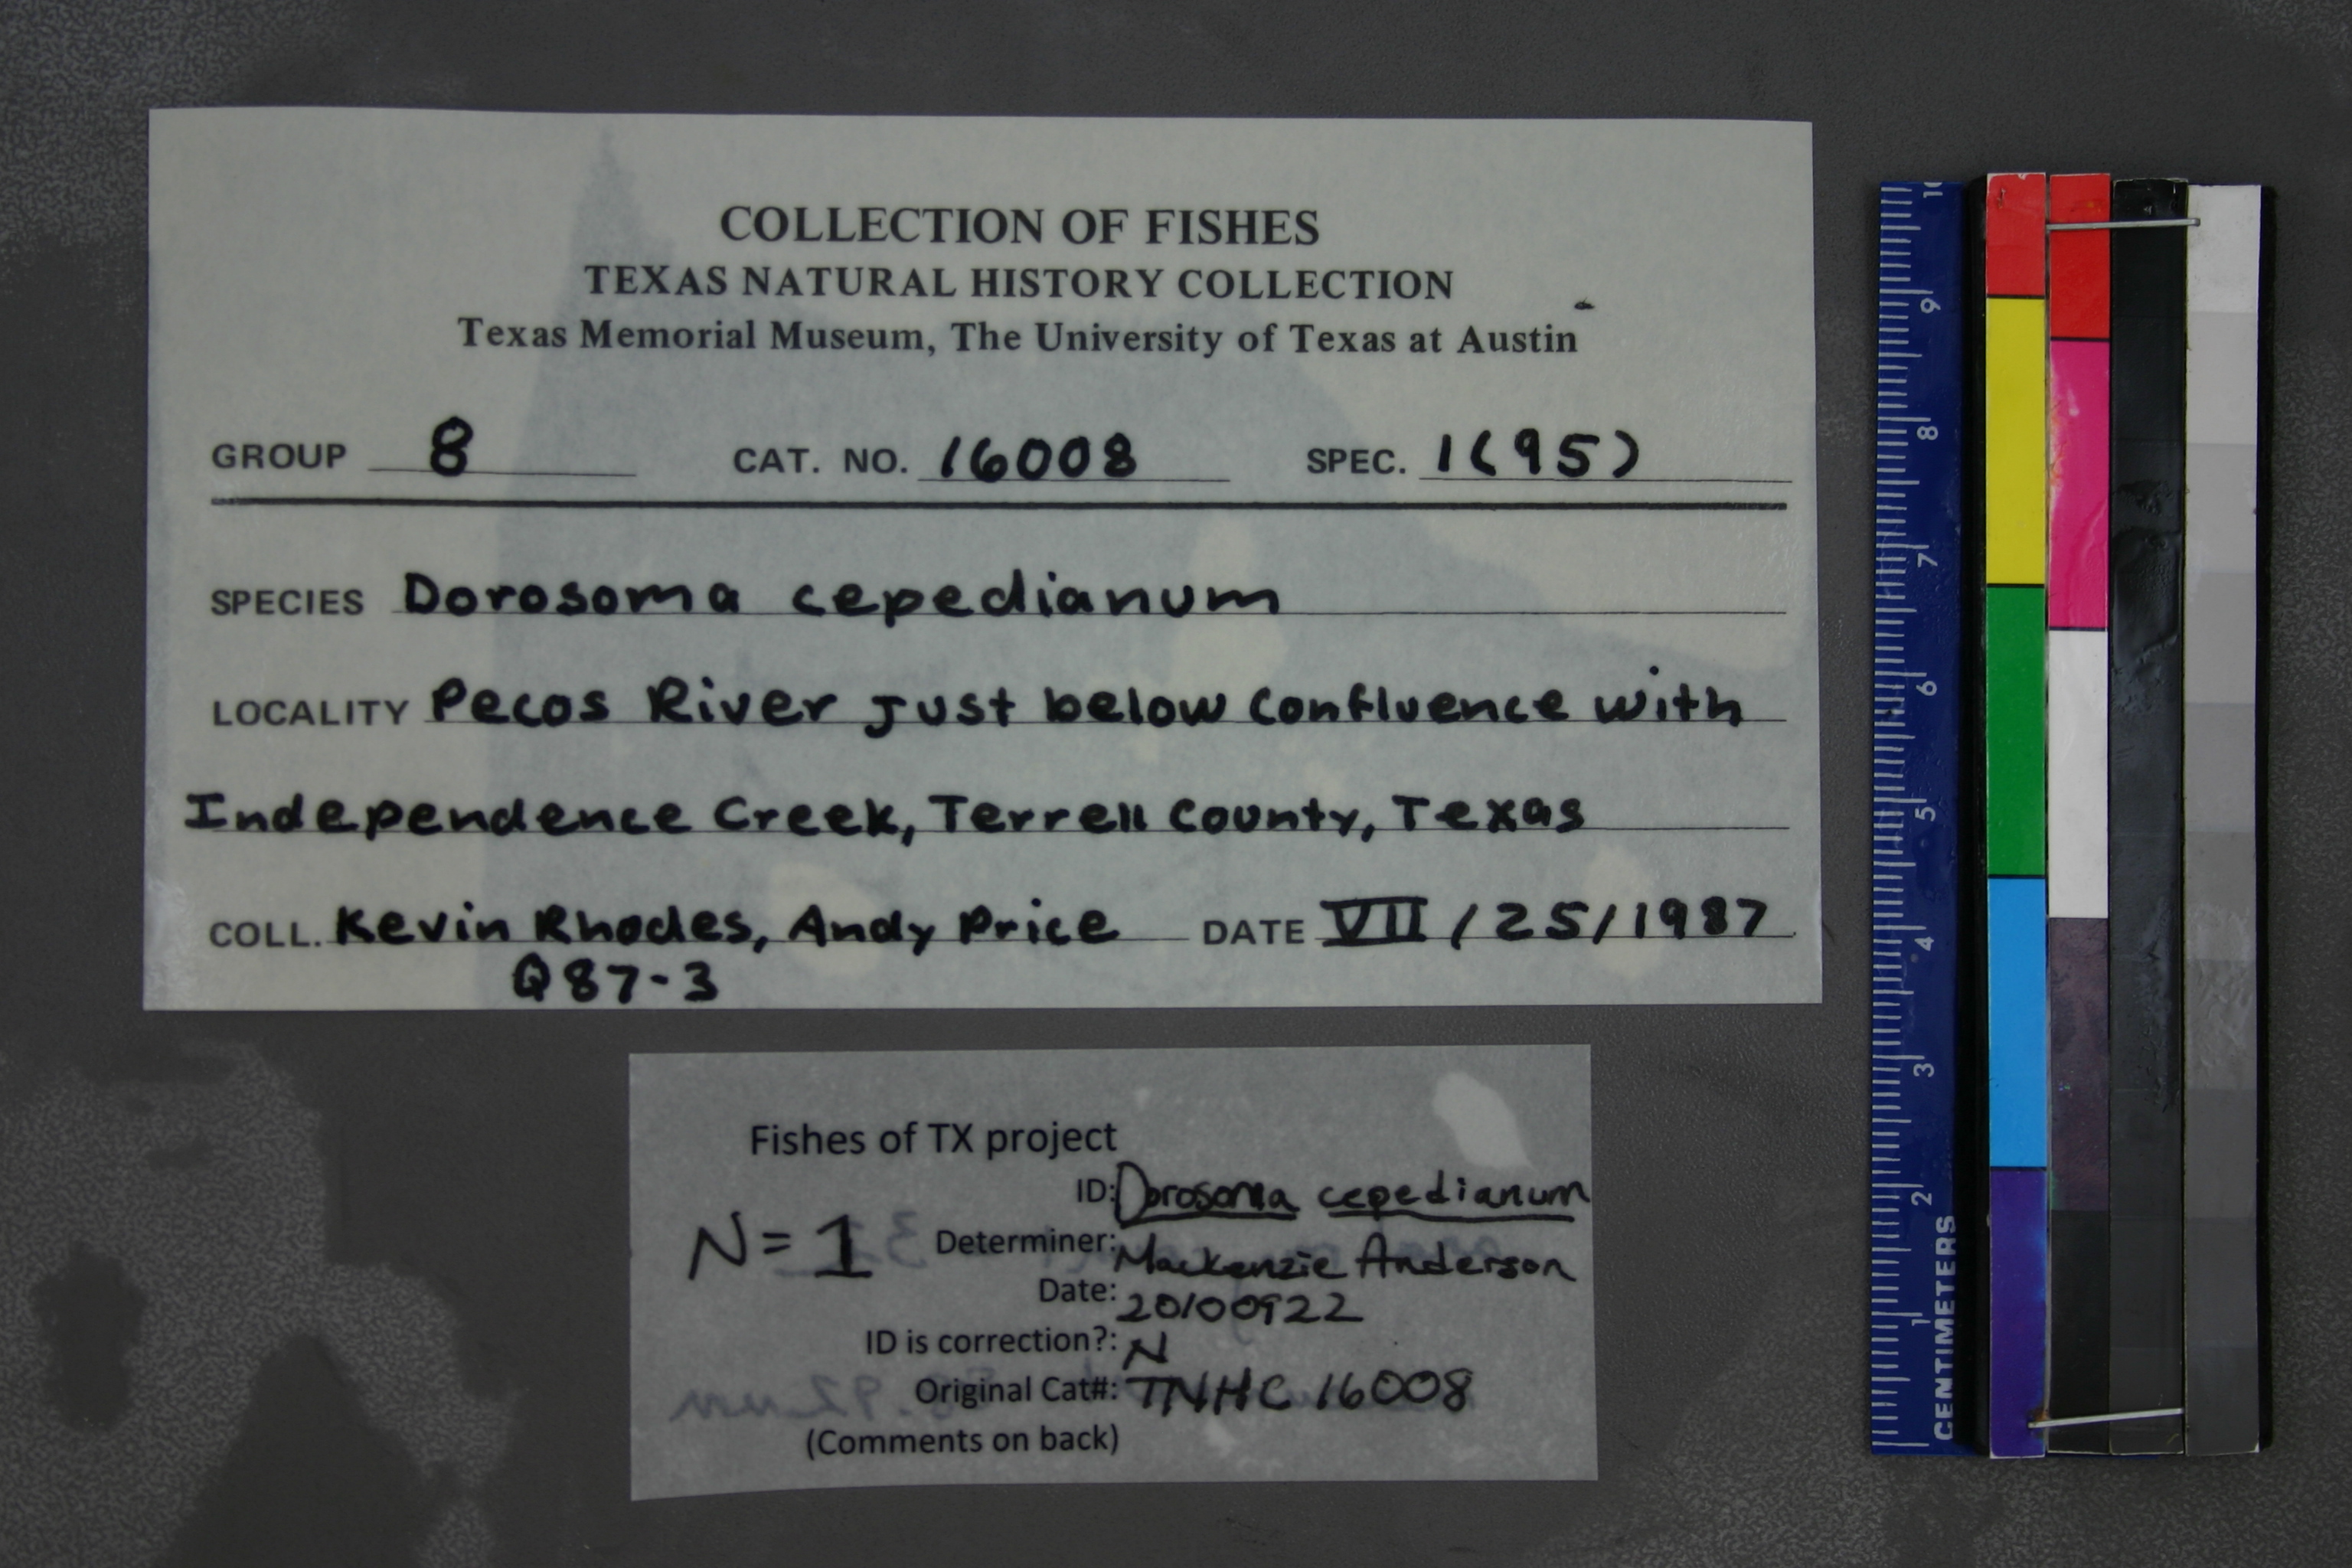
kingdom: Animalia
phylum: Chordata
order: Clupeiformes
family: Clupeidae
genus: Dorosoma
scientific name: Dorosoma cepedianum
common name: Gizzard shad
